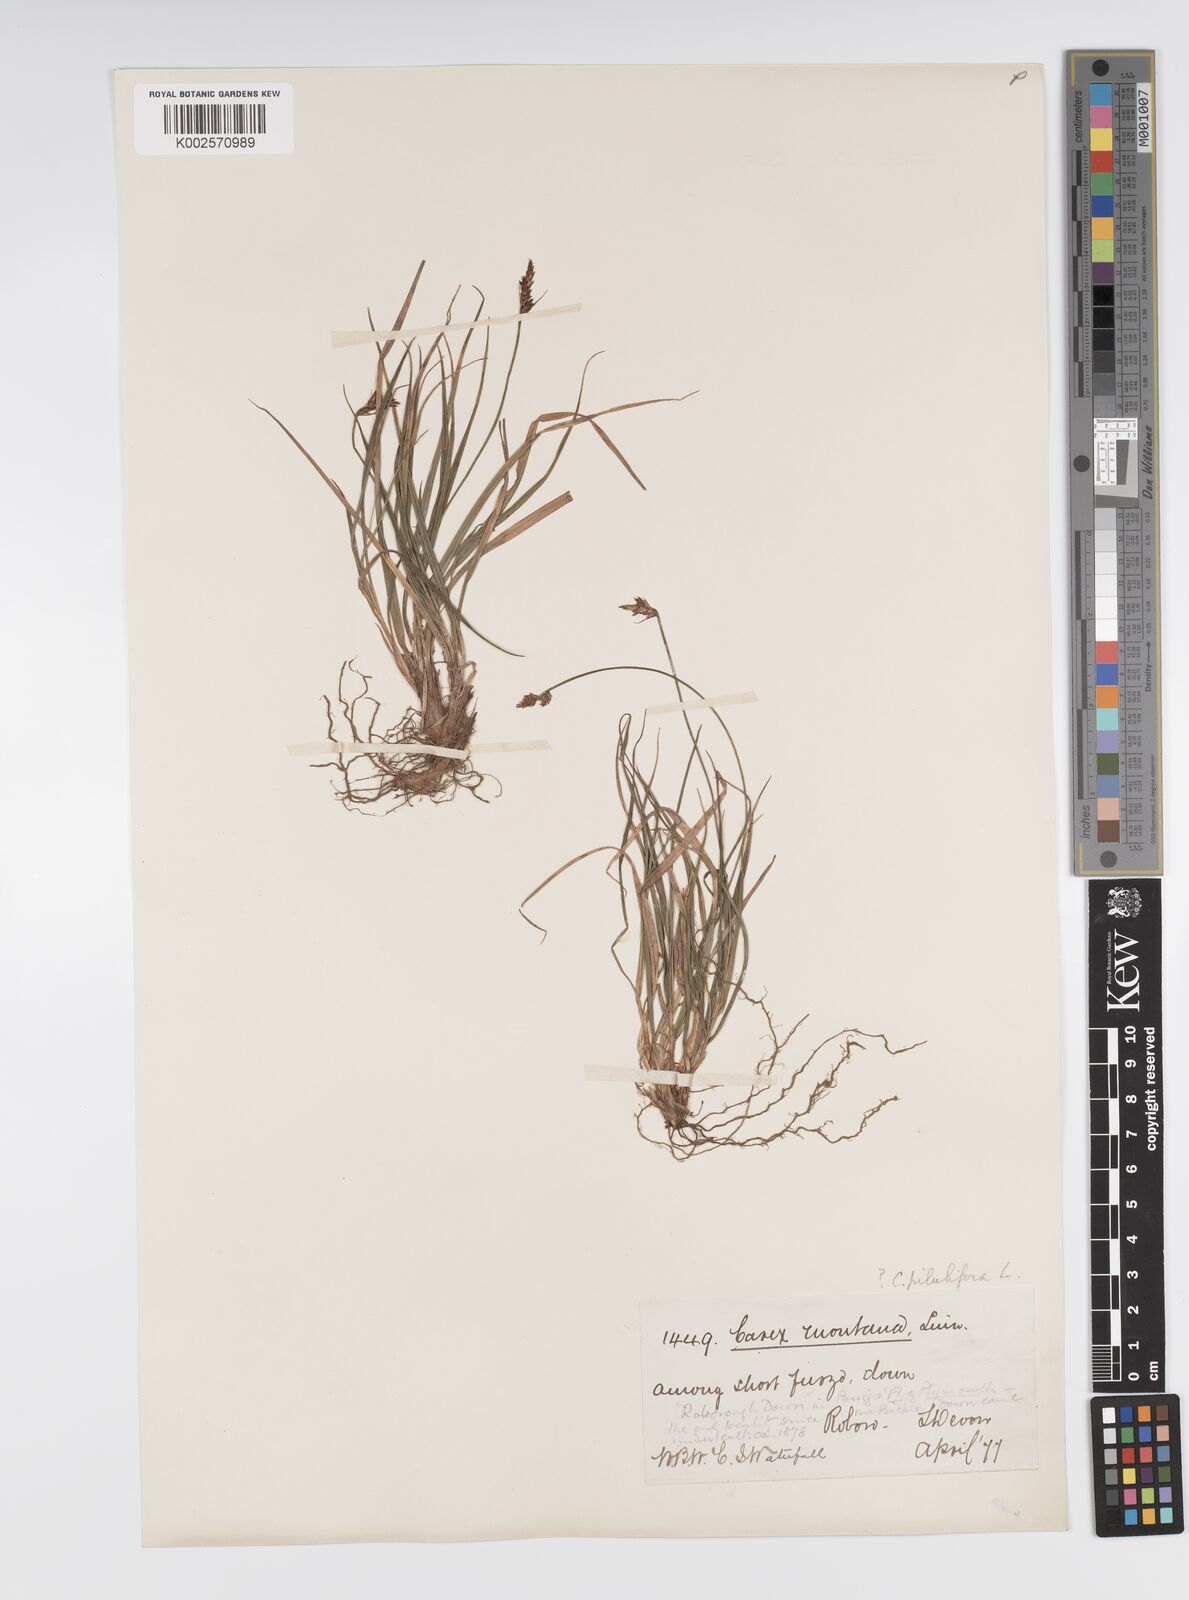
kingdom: Plantae
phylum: Tracheophyta
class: Liliopsida
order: Poales
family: Cyperaceae
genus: Carex
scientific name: Carex praecox
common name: Early sedge
